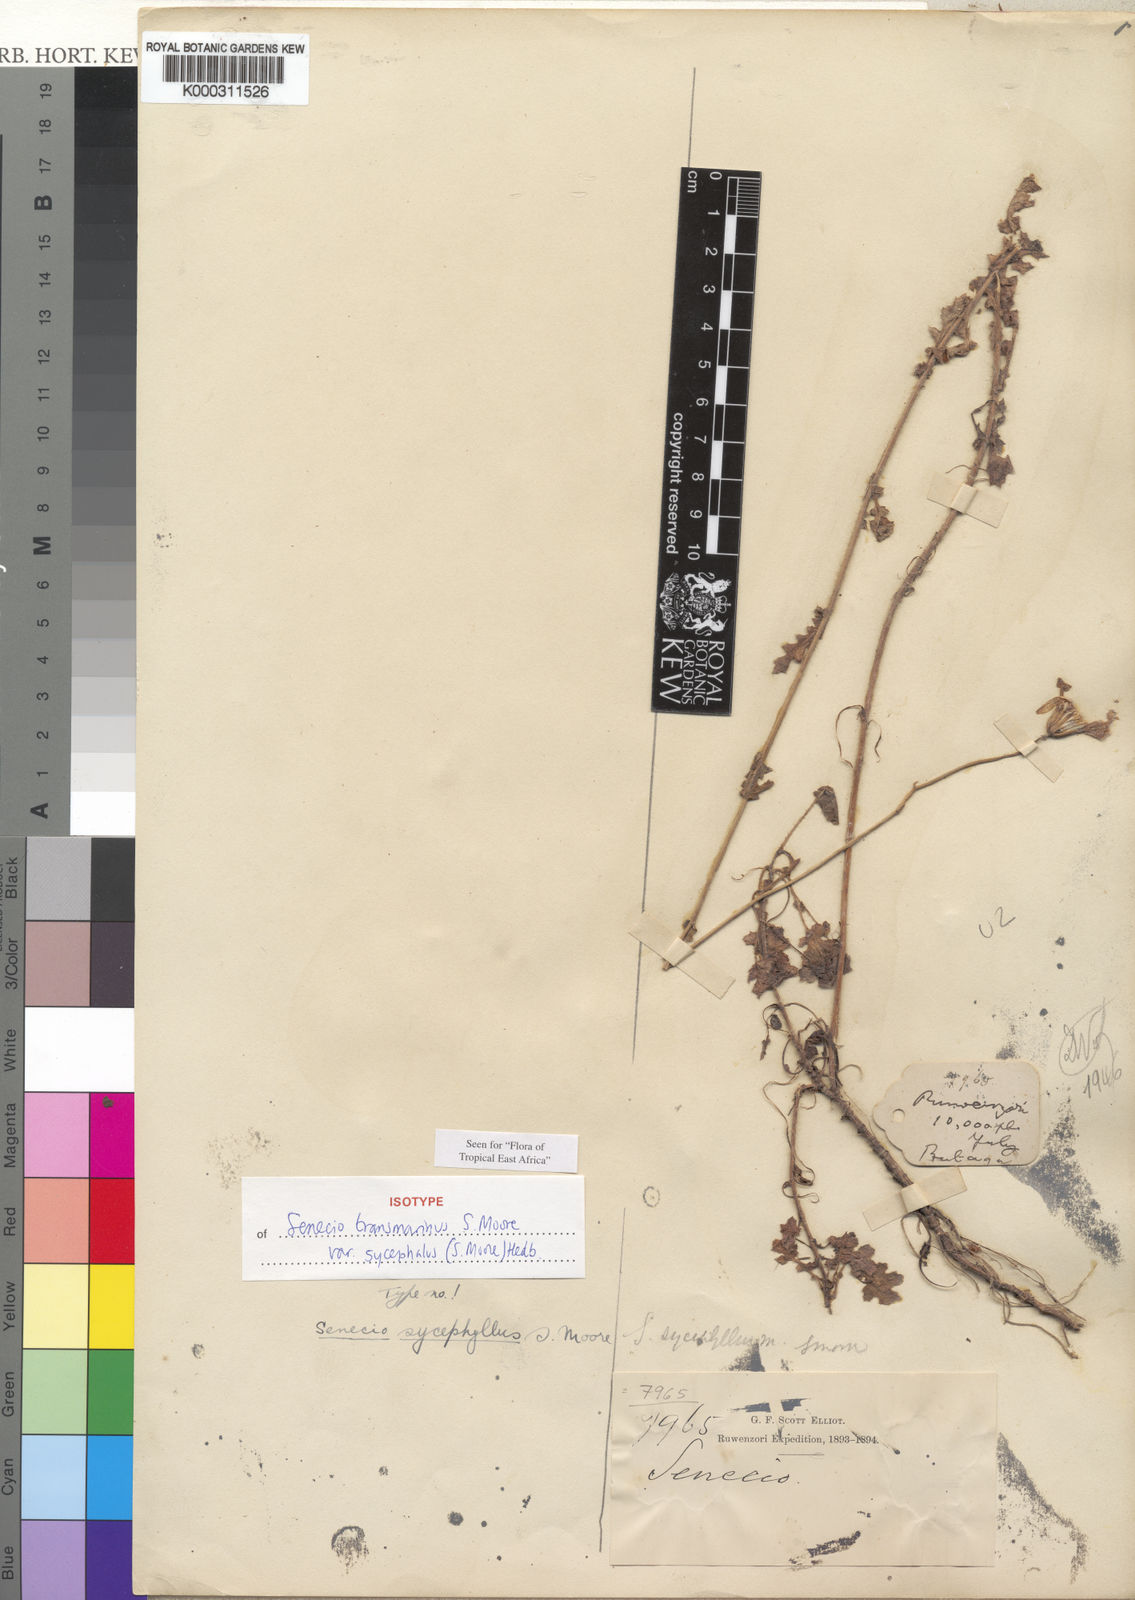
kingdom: Plantae
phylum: Tracheophyta
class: Magnoliopsida
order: Asterales
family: Asteraceae
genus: Senecio
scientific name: Senecio transmarinus
